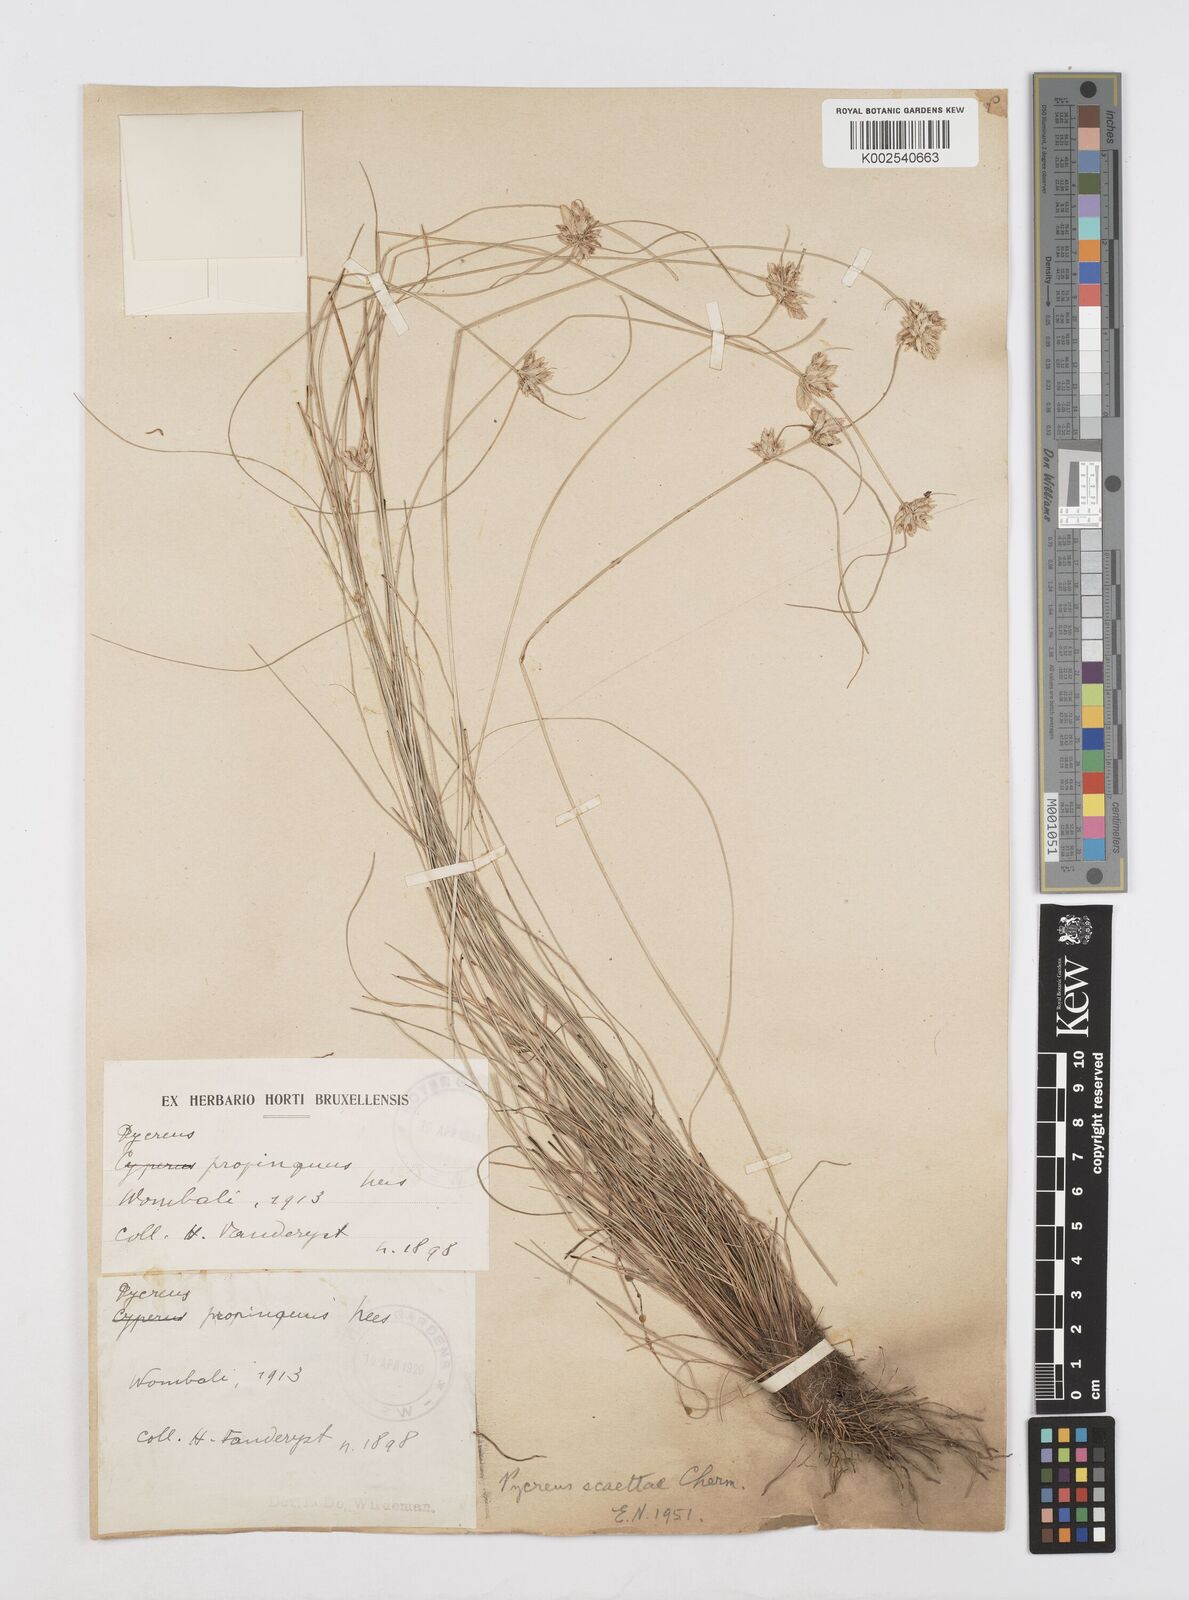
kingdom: Plantae
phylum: Tracheophyta
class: Liliopsida
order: Poales
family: Cyperaceae
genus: Cyperus
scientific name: Cyperus scaettae
